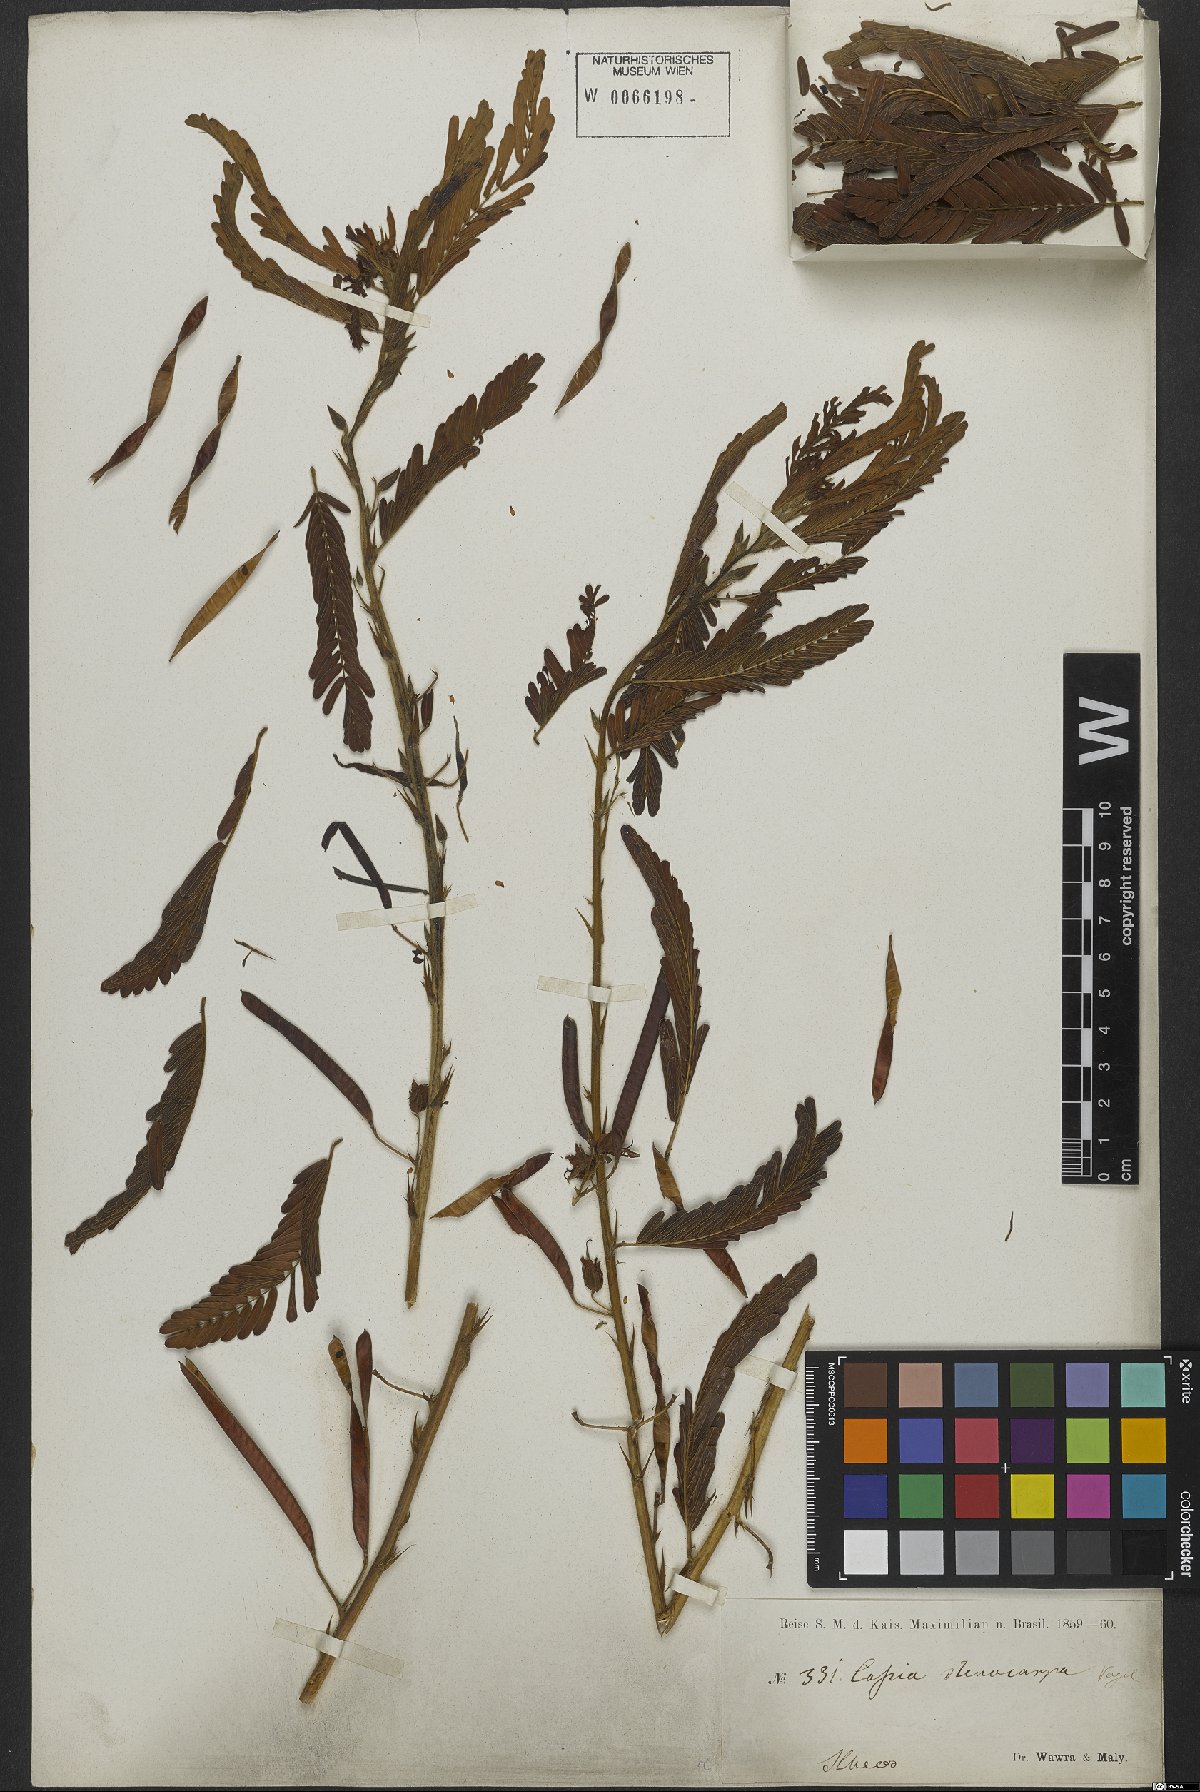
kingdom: Plantae
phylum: Tracheophyta
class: Magnoliopsida
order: Fabales
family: Fabaceae
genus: Chamaecrista
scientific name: Chamaecrista nictitans
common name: Sensitive cassia
